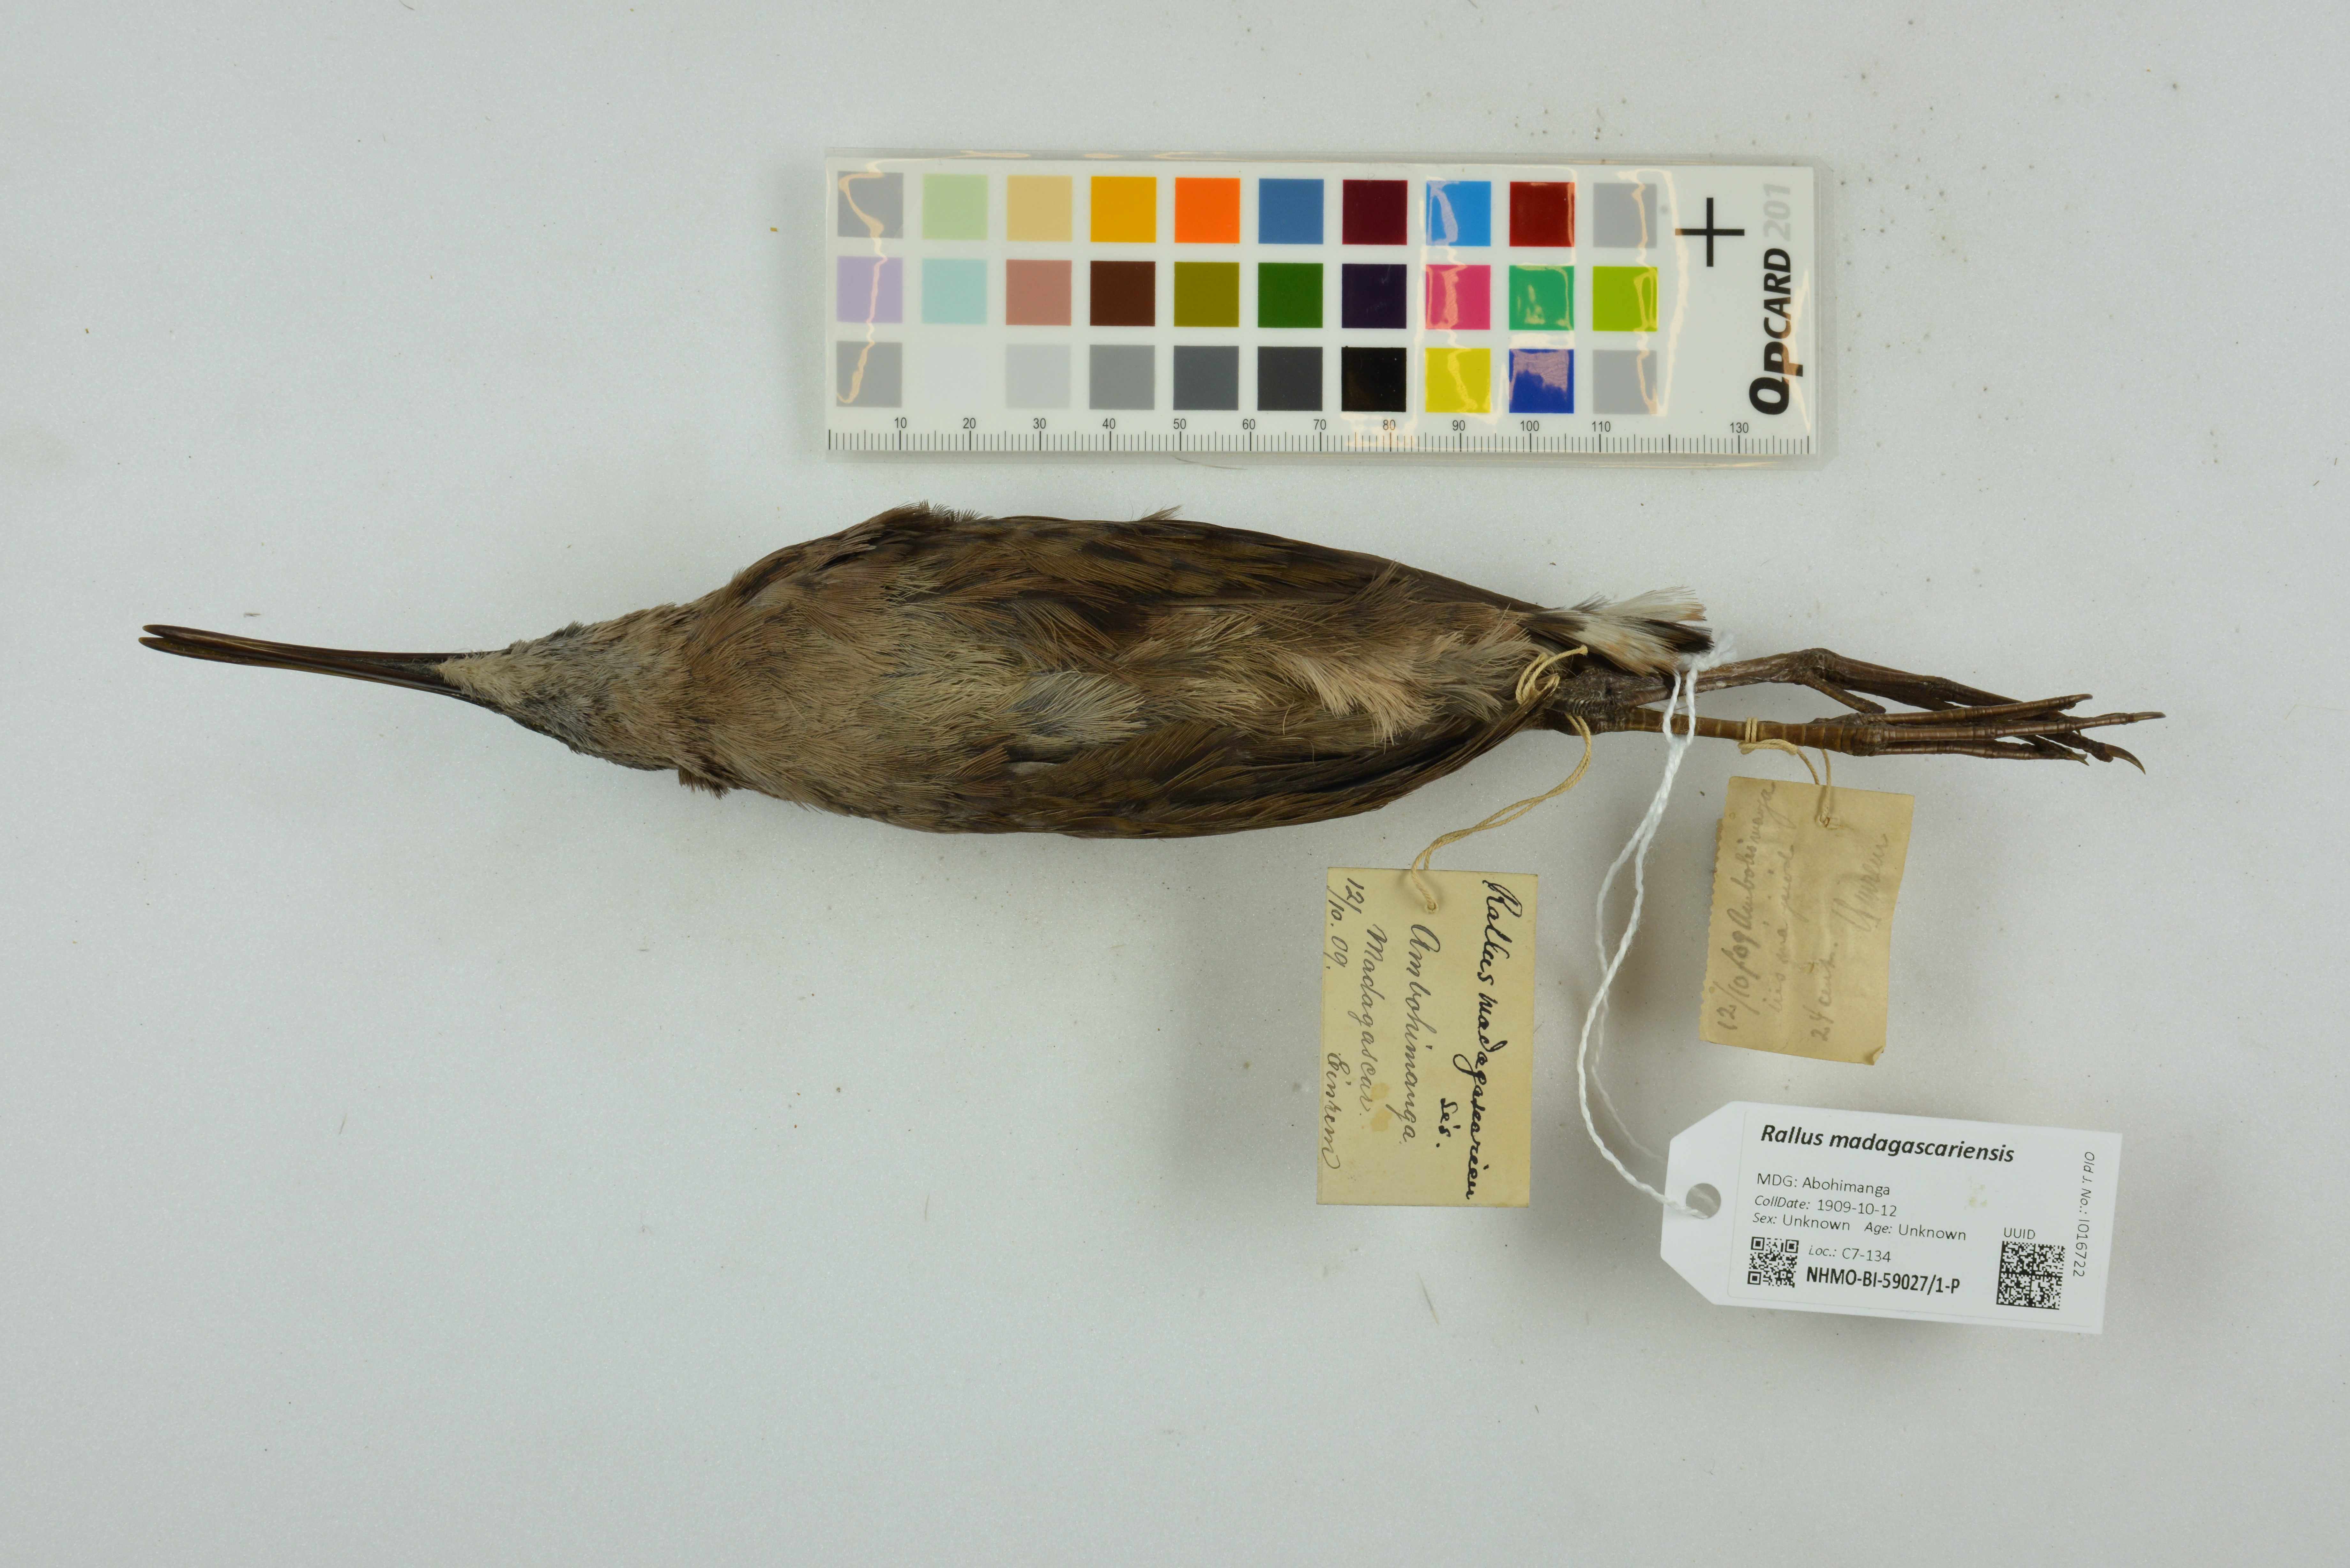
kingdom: Animalia
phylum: Chordata
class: Aves
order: Gruiformes
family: Rallidae
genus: Rallus
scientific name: Rallus madagascariensis
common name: Madagascar rail
